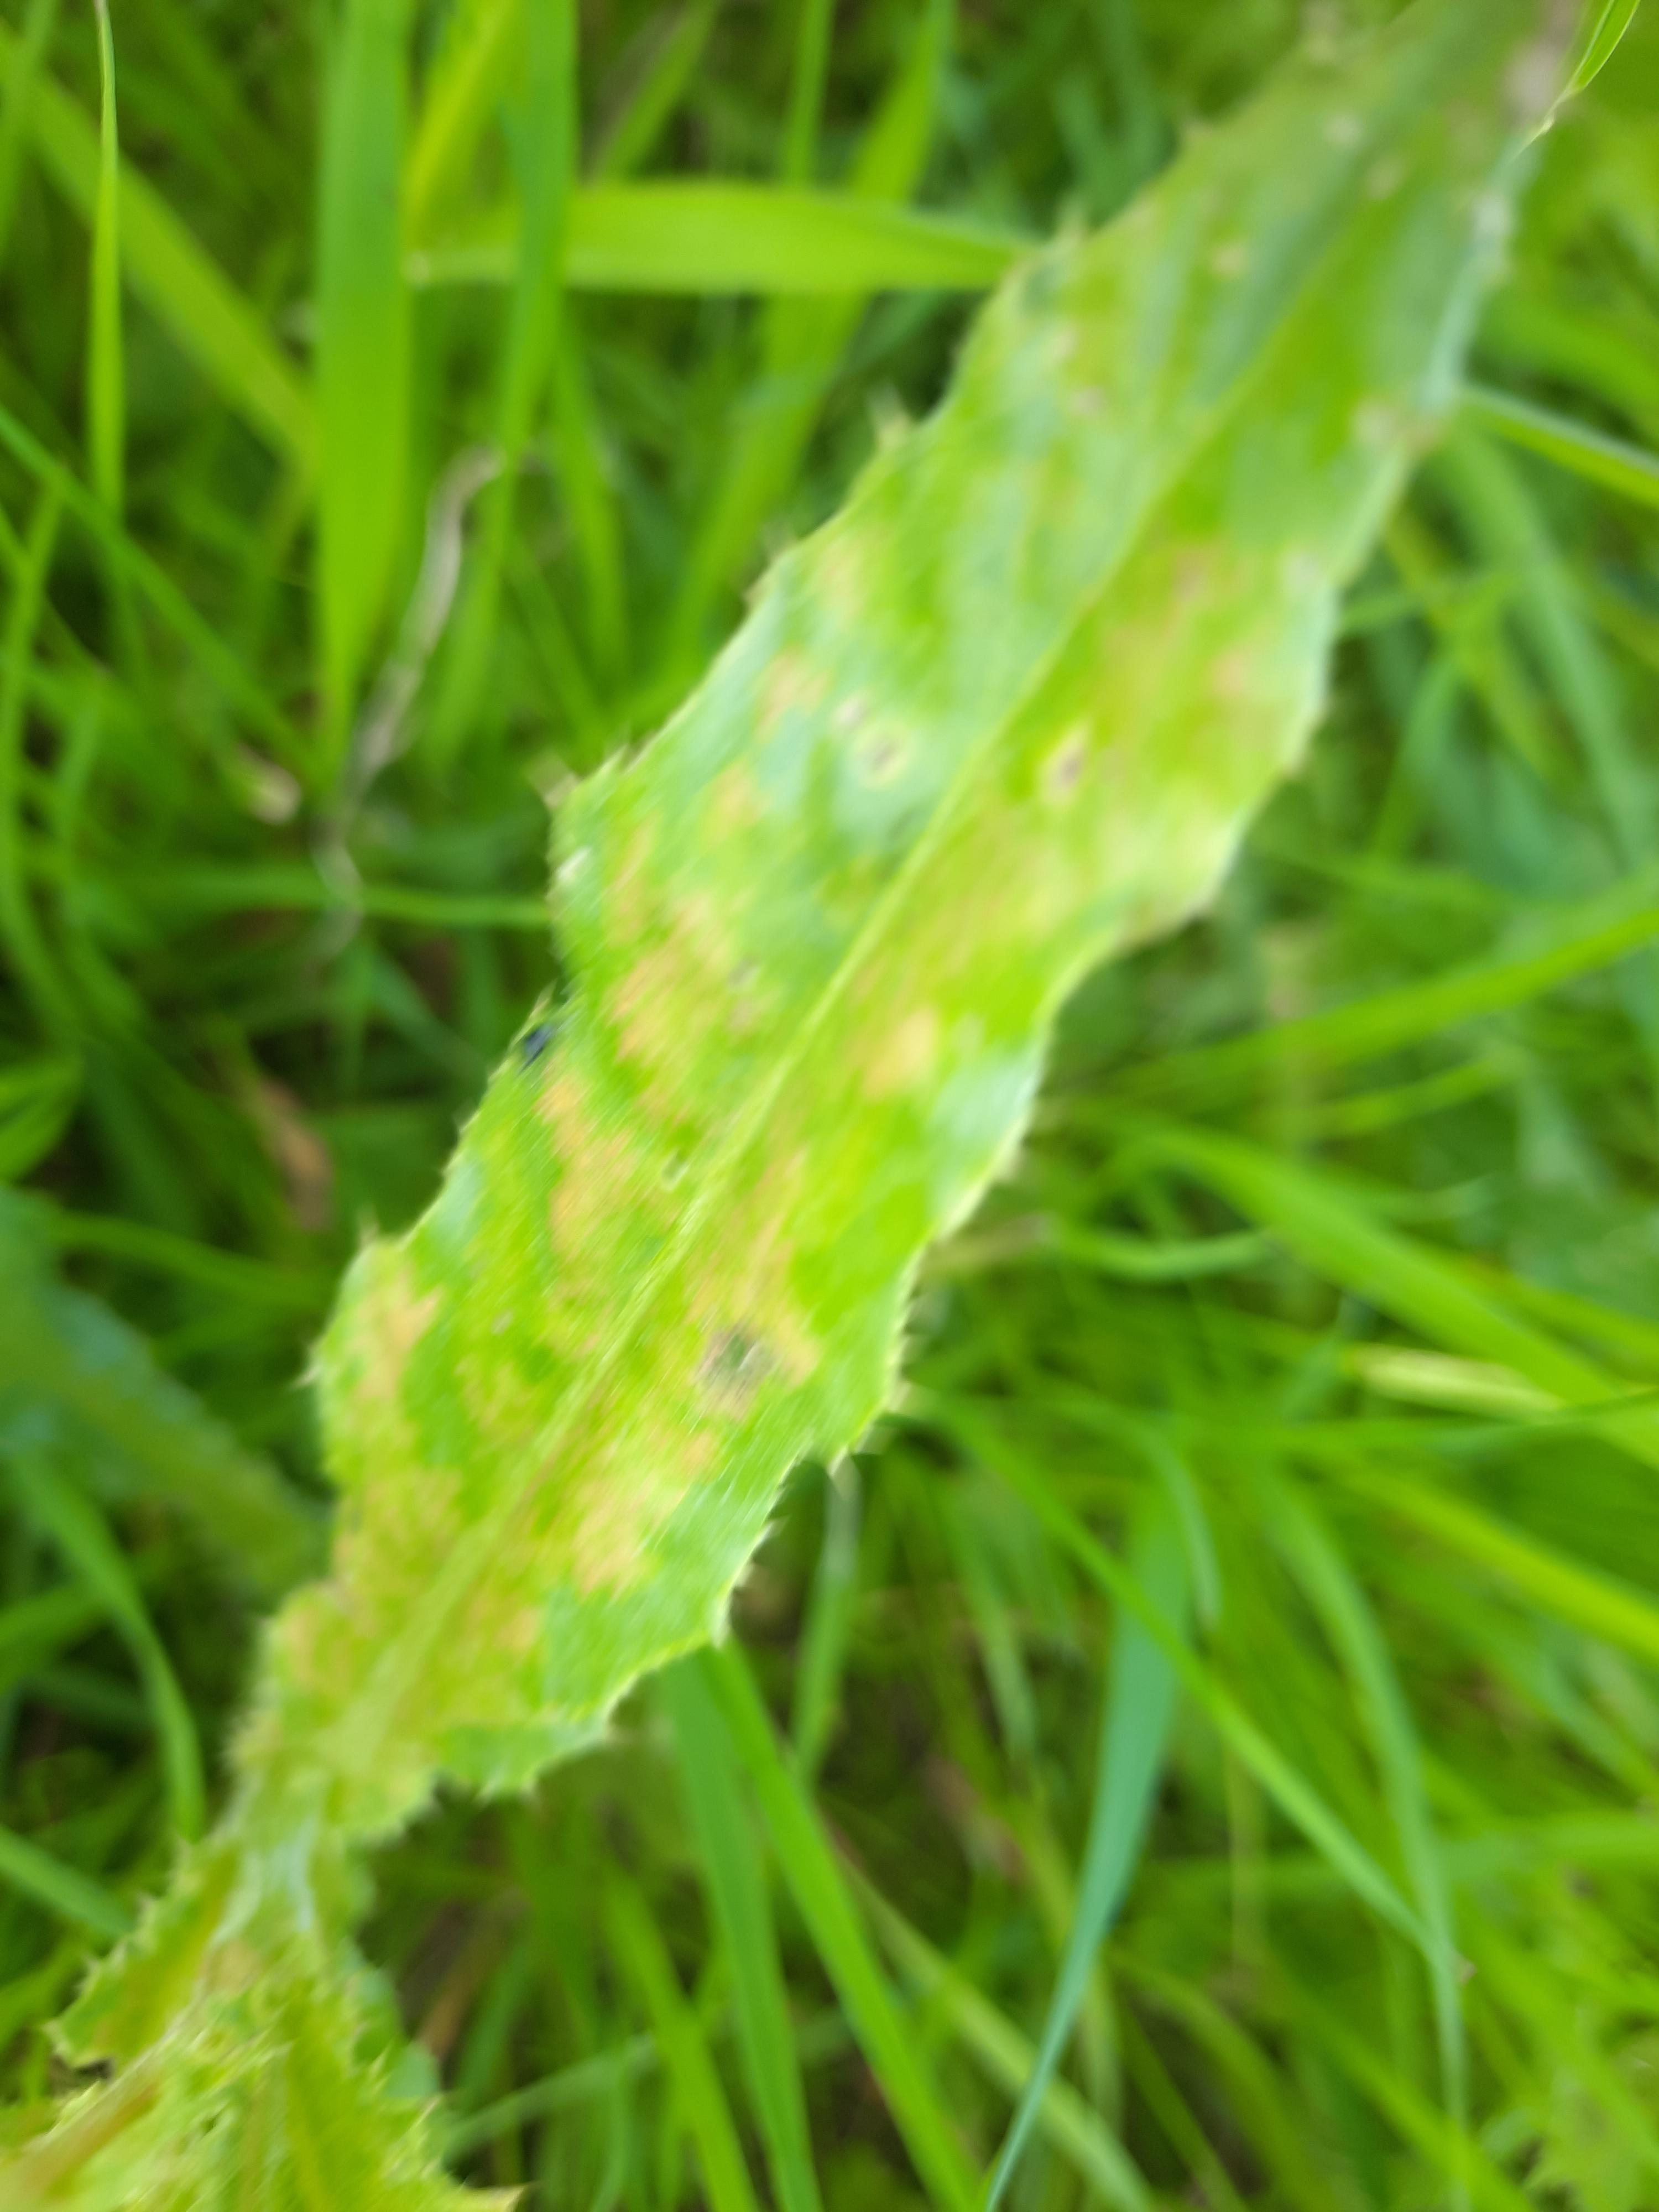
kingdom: Fungi
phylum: Basidiomycota
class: Pucciniomycetes
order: Pucciniales
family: Pucciniaceae
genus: Puccinia
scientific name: Puccinia suaveolens
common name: tidsel-tvecellerust
